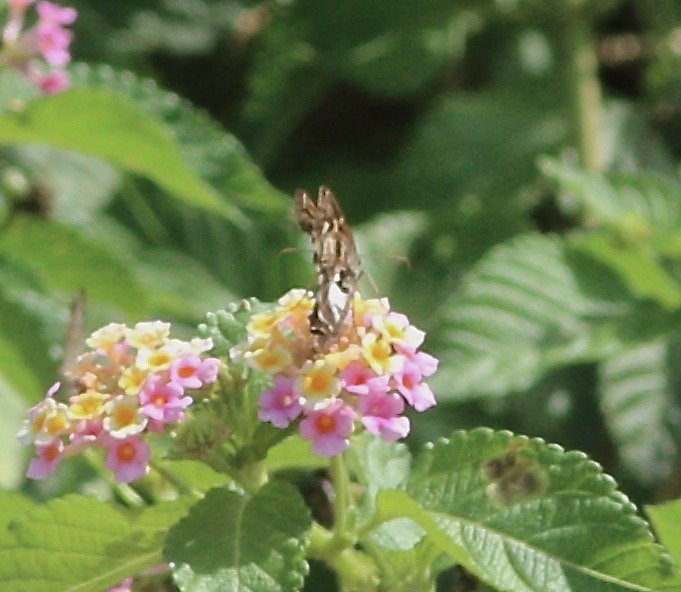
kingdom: Animalia
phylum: Arthropoda
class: Insecta
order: Lepidoptera
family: Hesperiidae
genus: Chioides
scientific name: Chioides zilpa
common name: Zilpa Longtail
